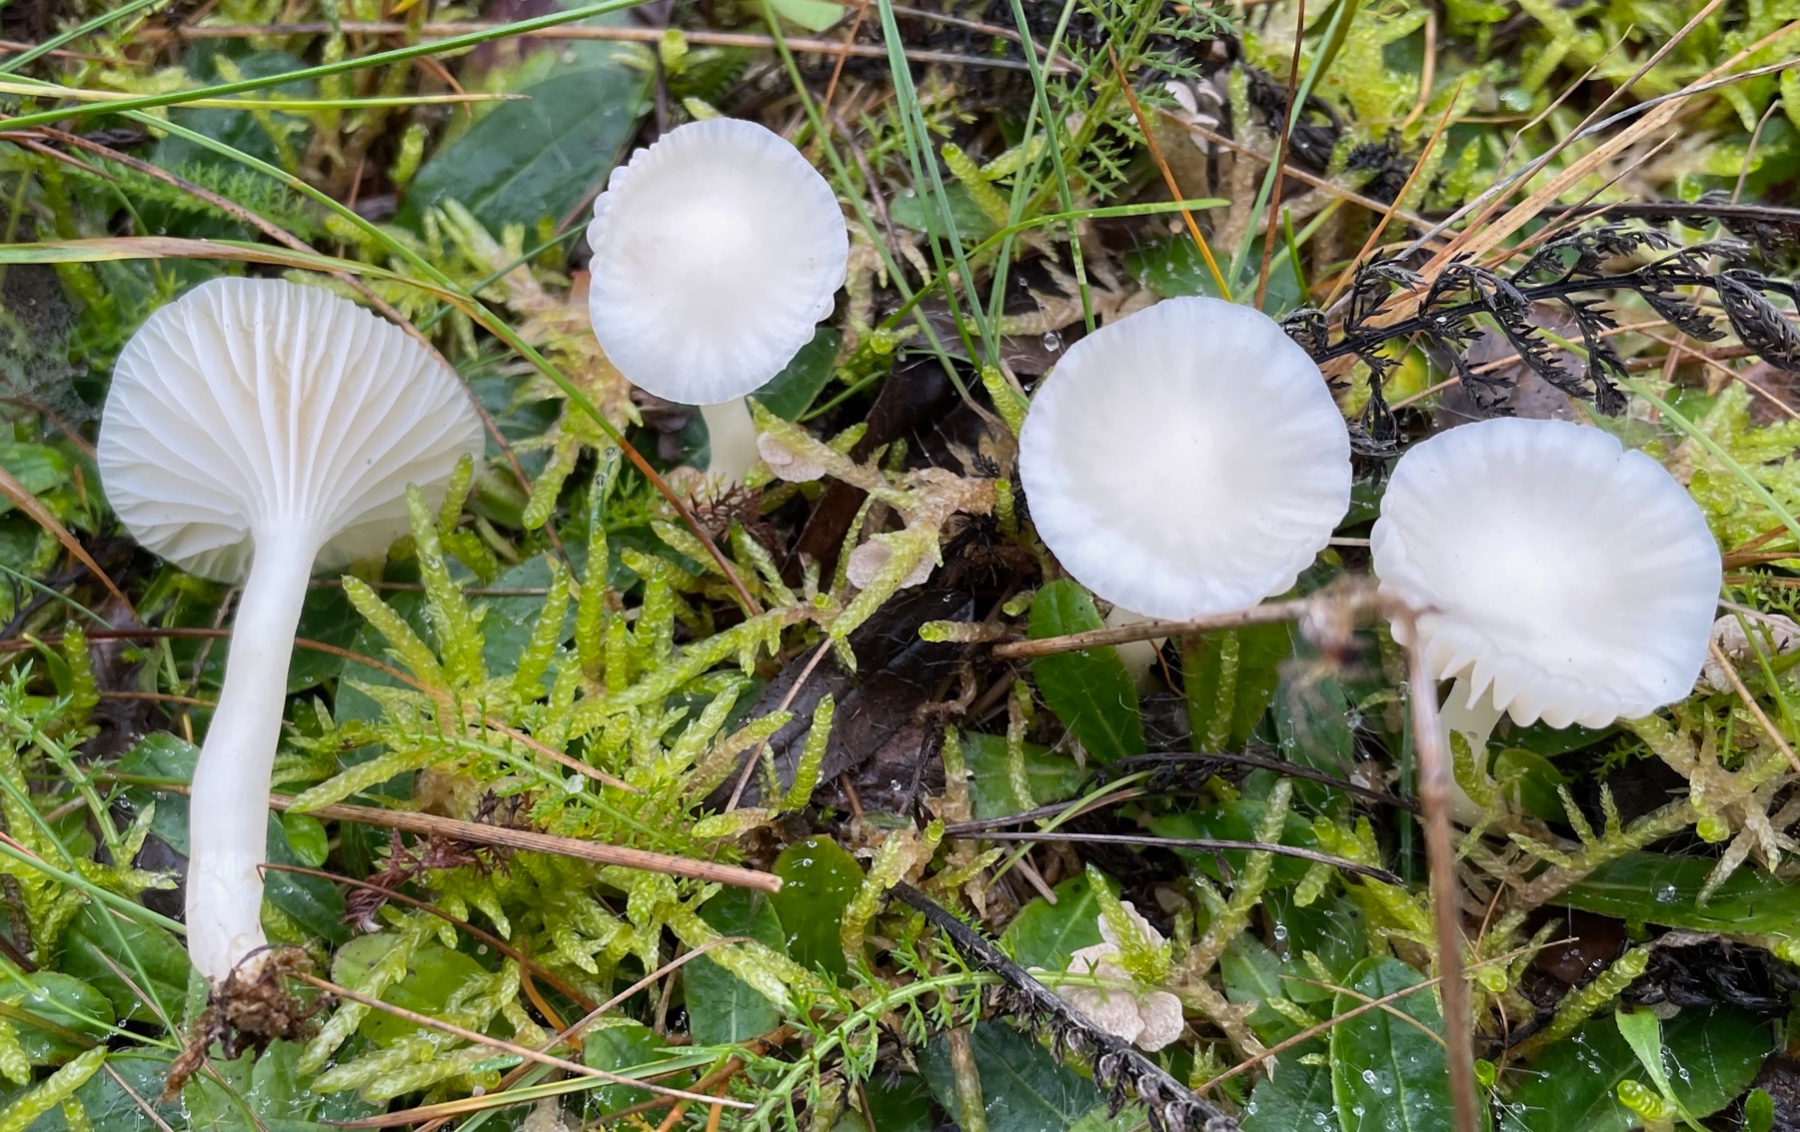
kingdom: Fungi
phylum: Basidiomycota
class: Agaricomycetes
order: Agaricales
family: Hygrophoraceae
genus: Cuphophyllus
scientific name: Cuphophyllus virgineus
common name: snehvid vokshat
